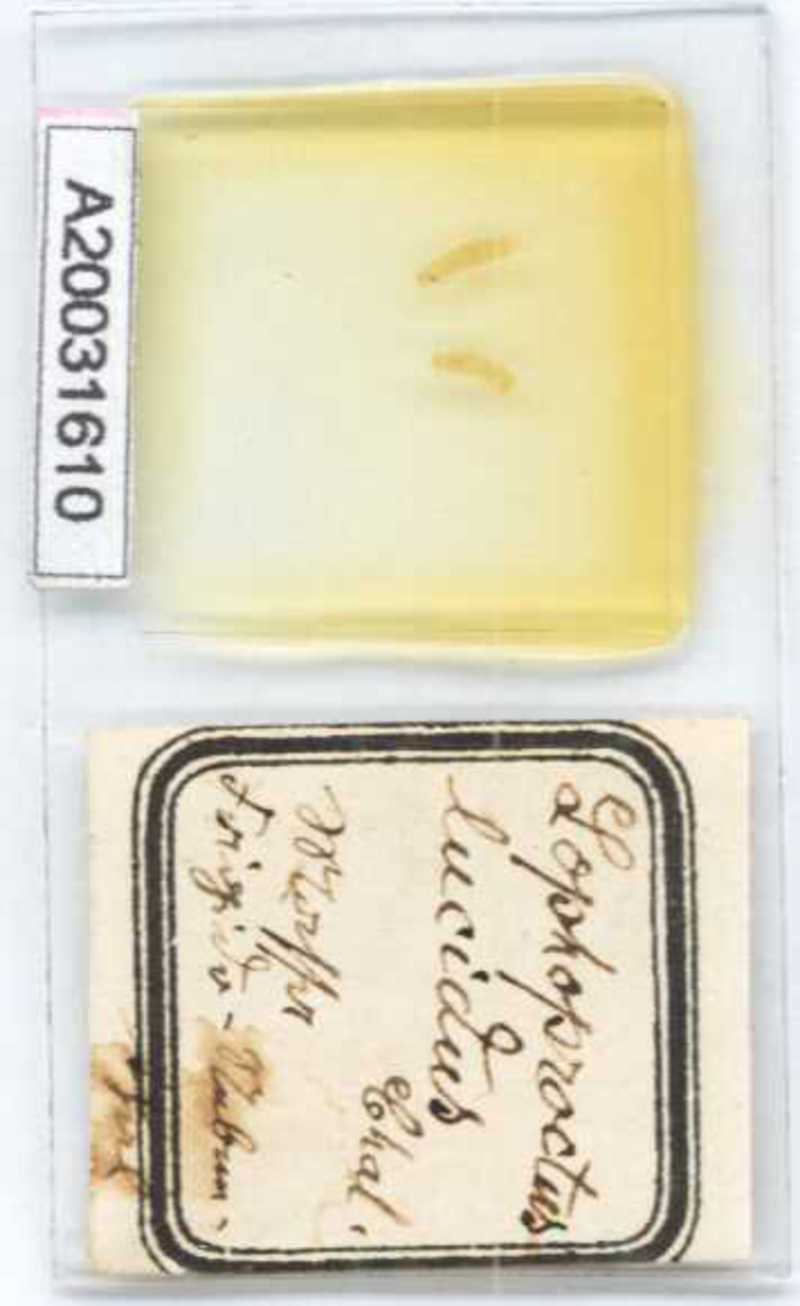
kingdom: Animalia
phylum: Arthropoda
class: Diplopoda
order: Polyxenida
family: Lophoproctidae
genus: Lophoproctus
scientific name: Lophoproctus lucidus
